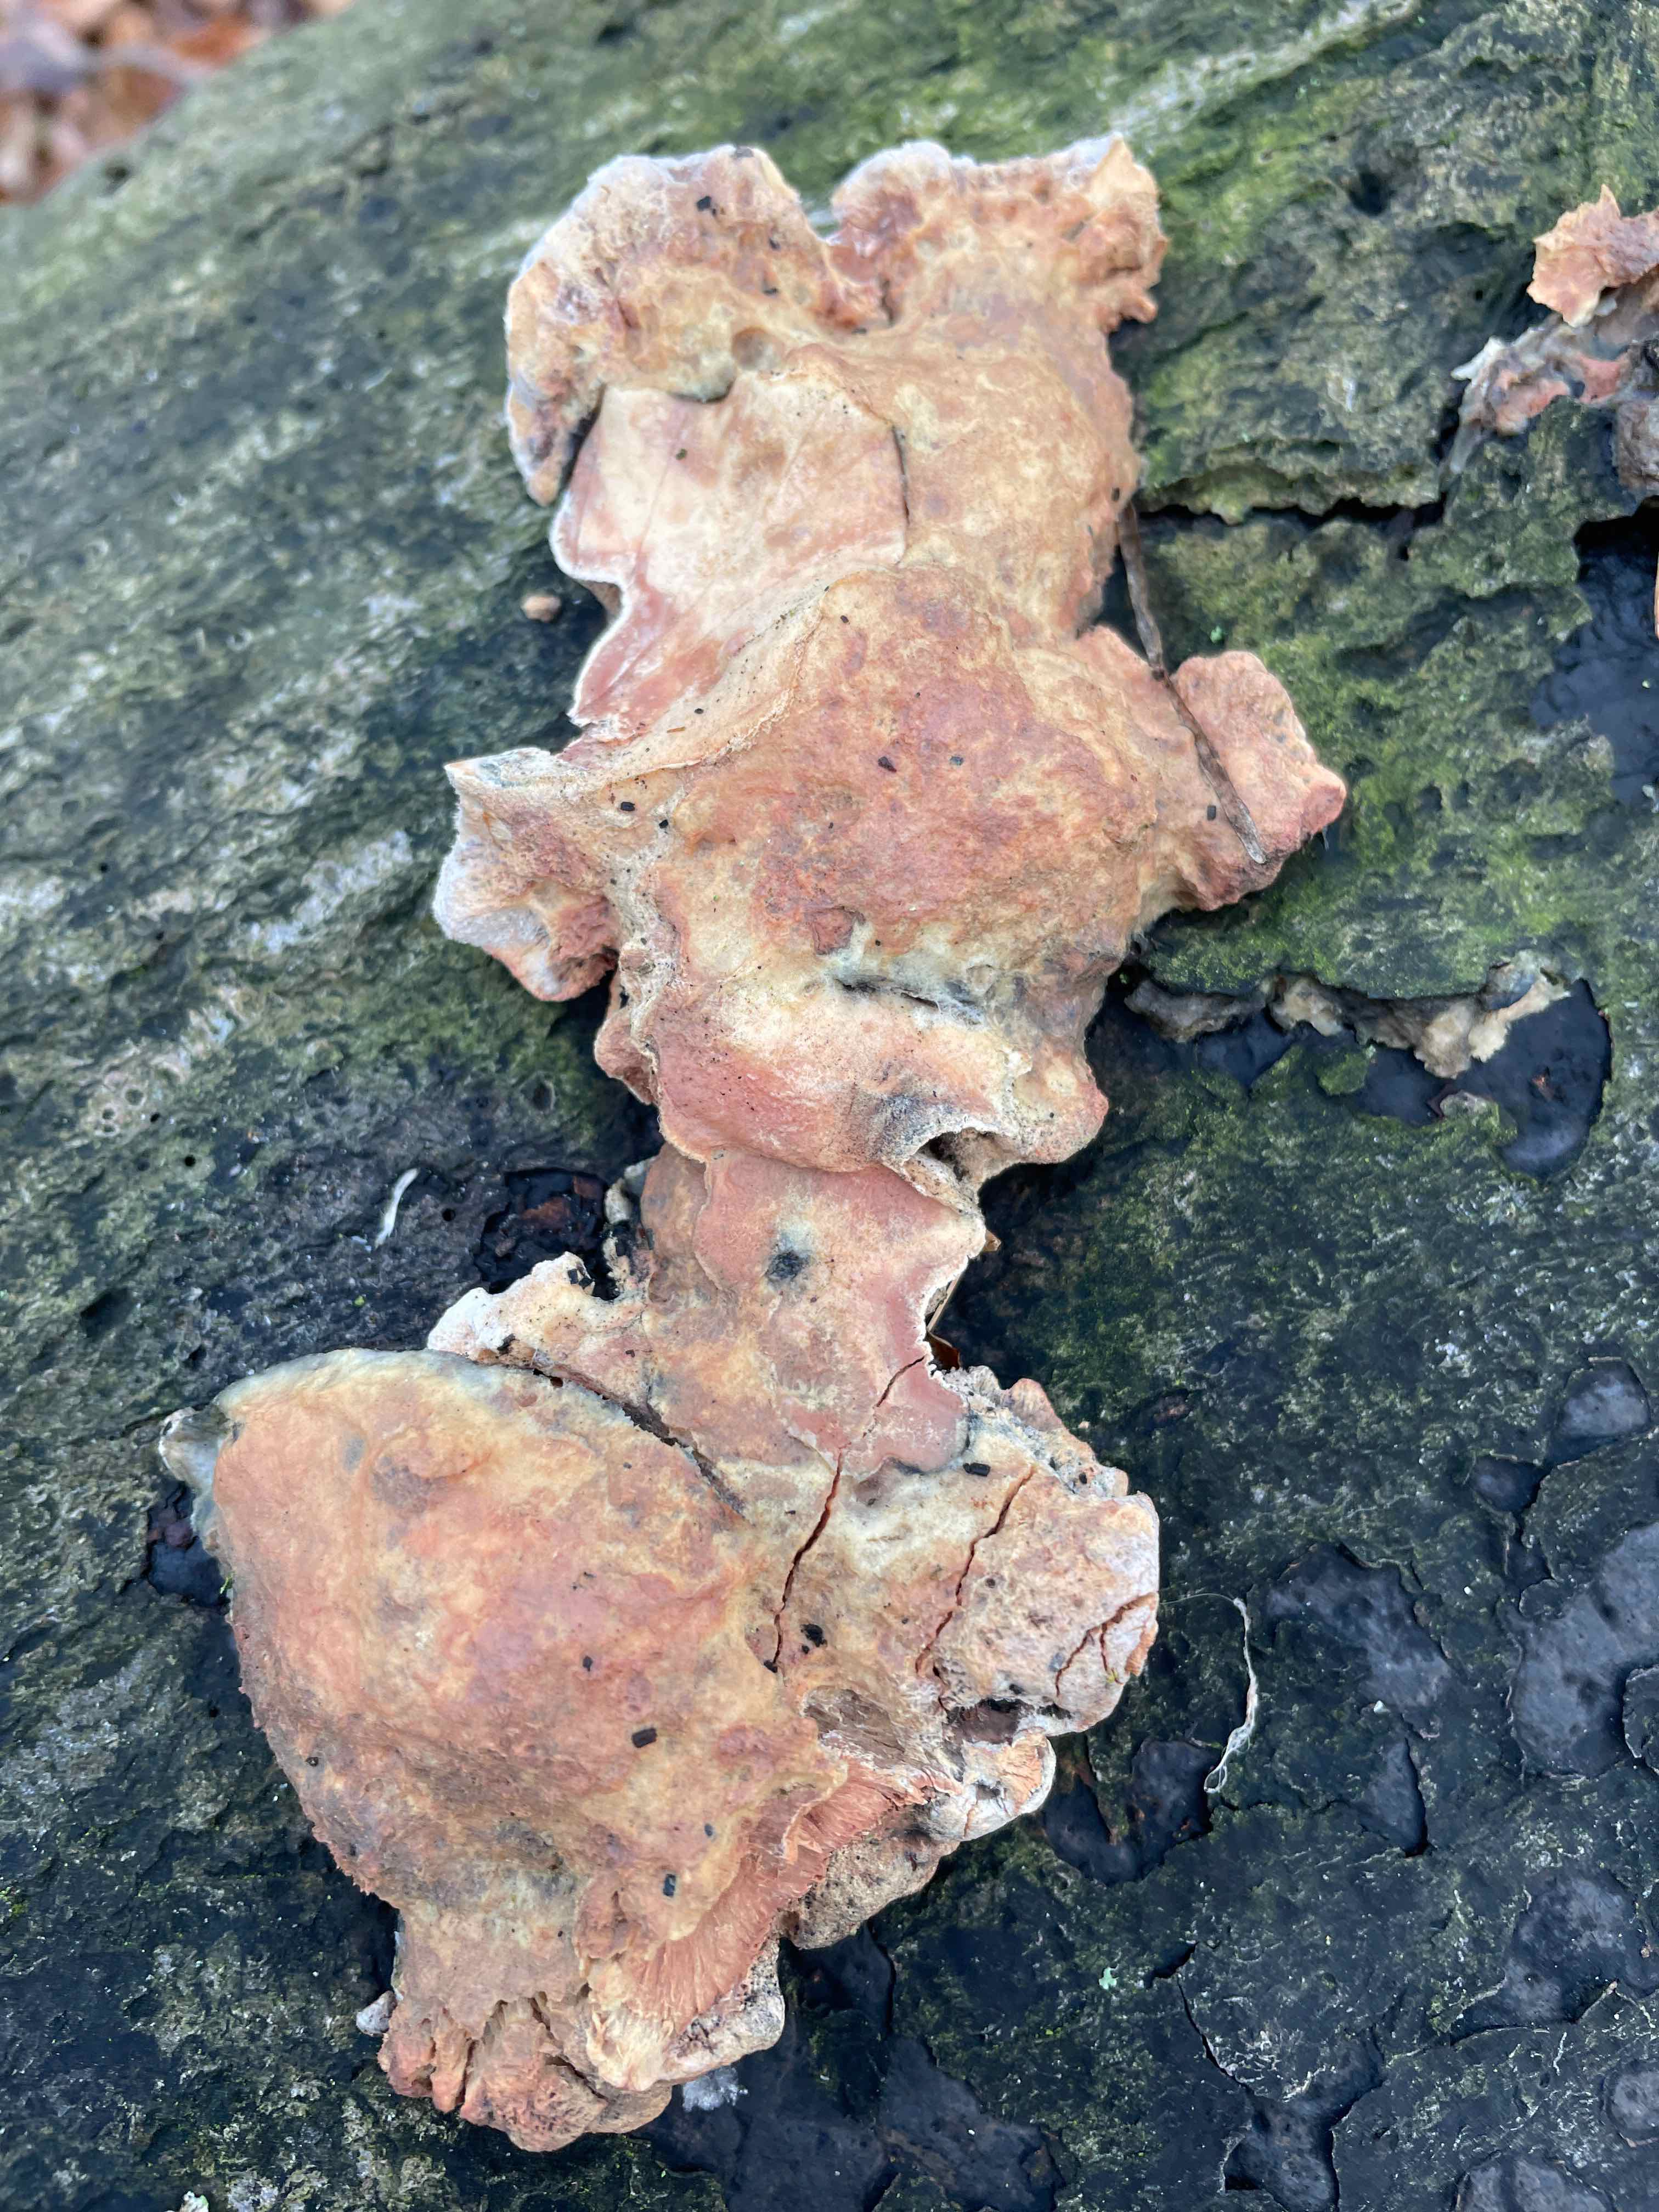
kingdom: Fungi
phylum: Basidiomycota
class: Agaricomycetes
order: Polyporales
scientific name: Polyporales
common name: poresvampordenen
